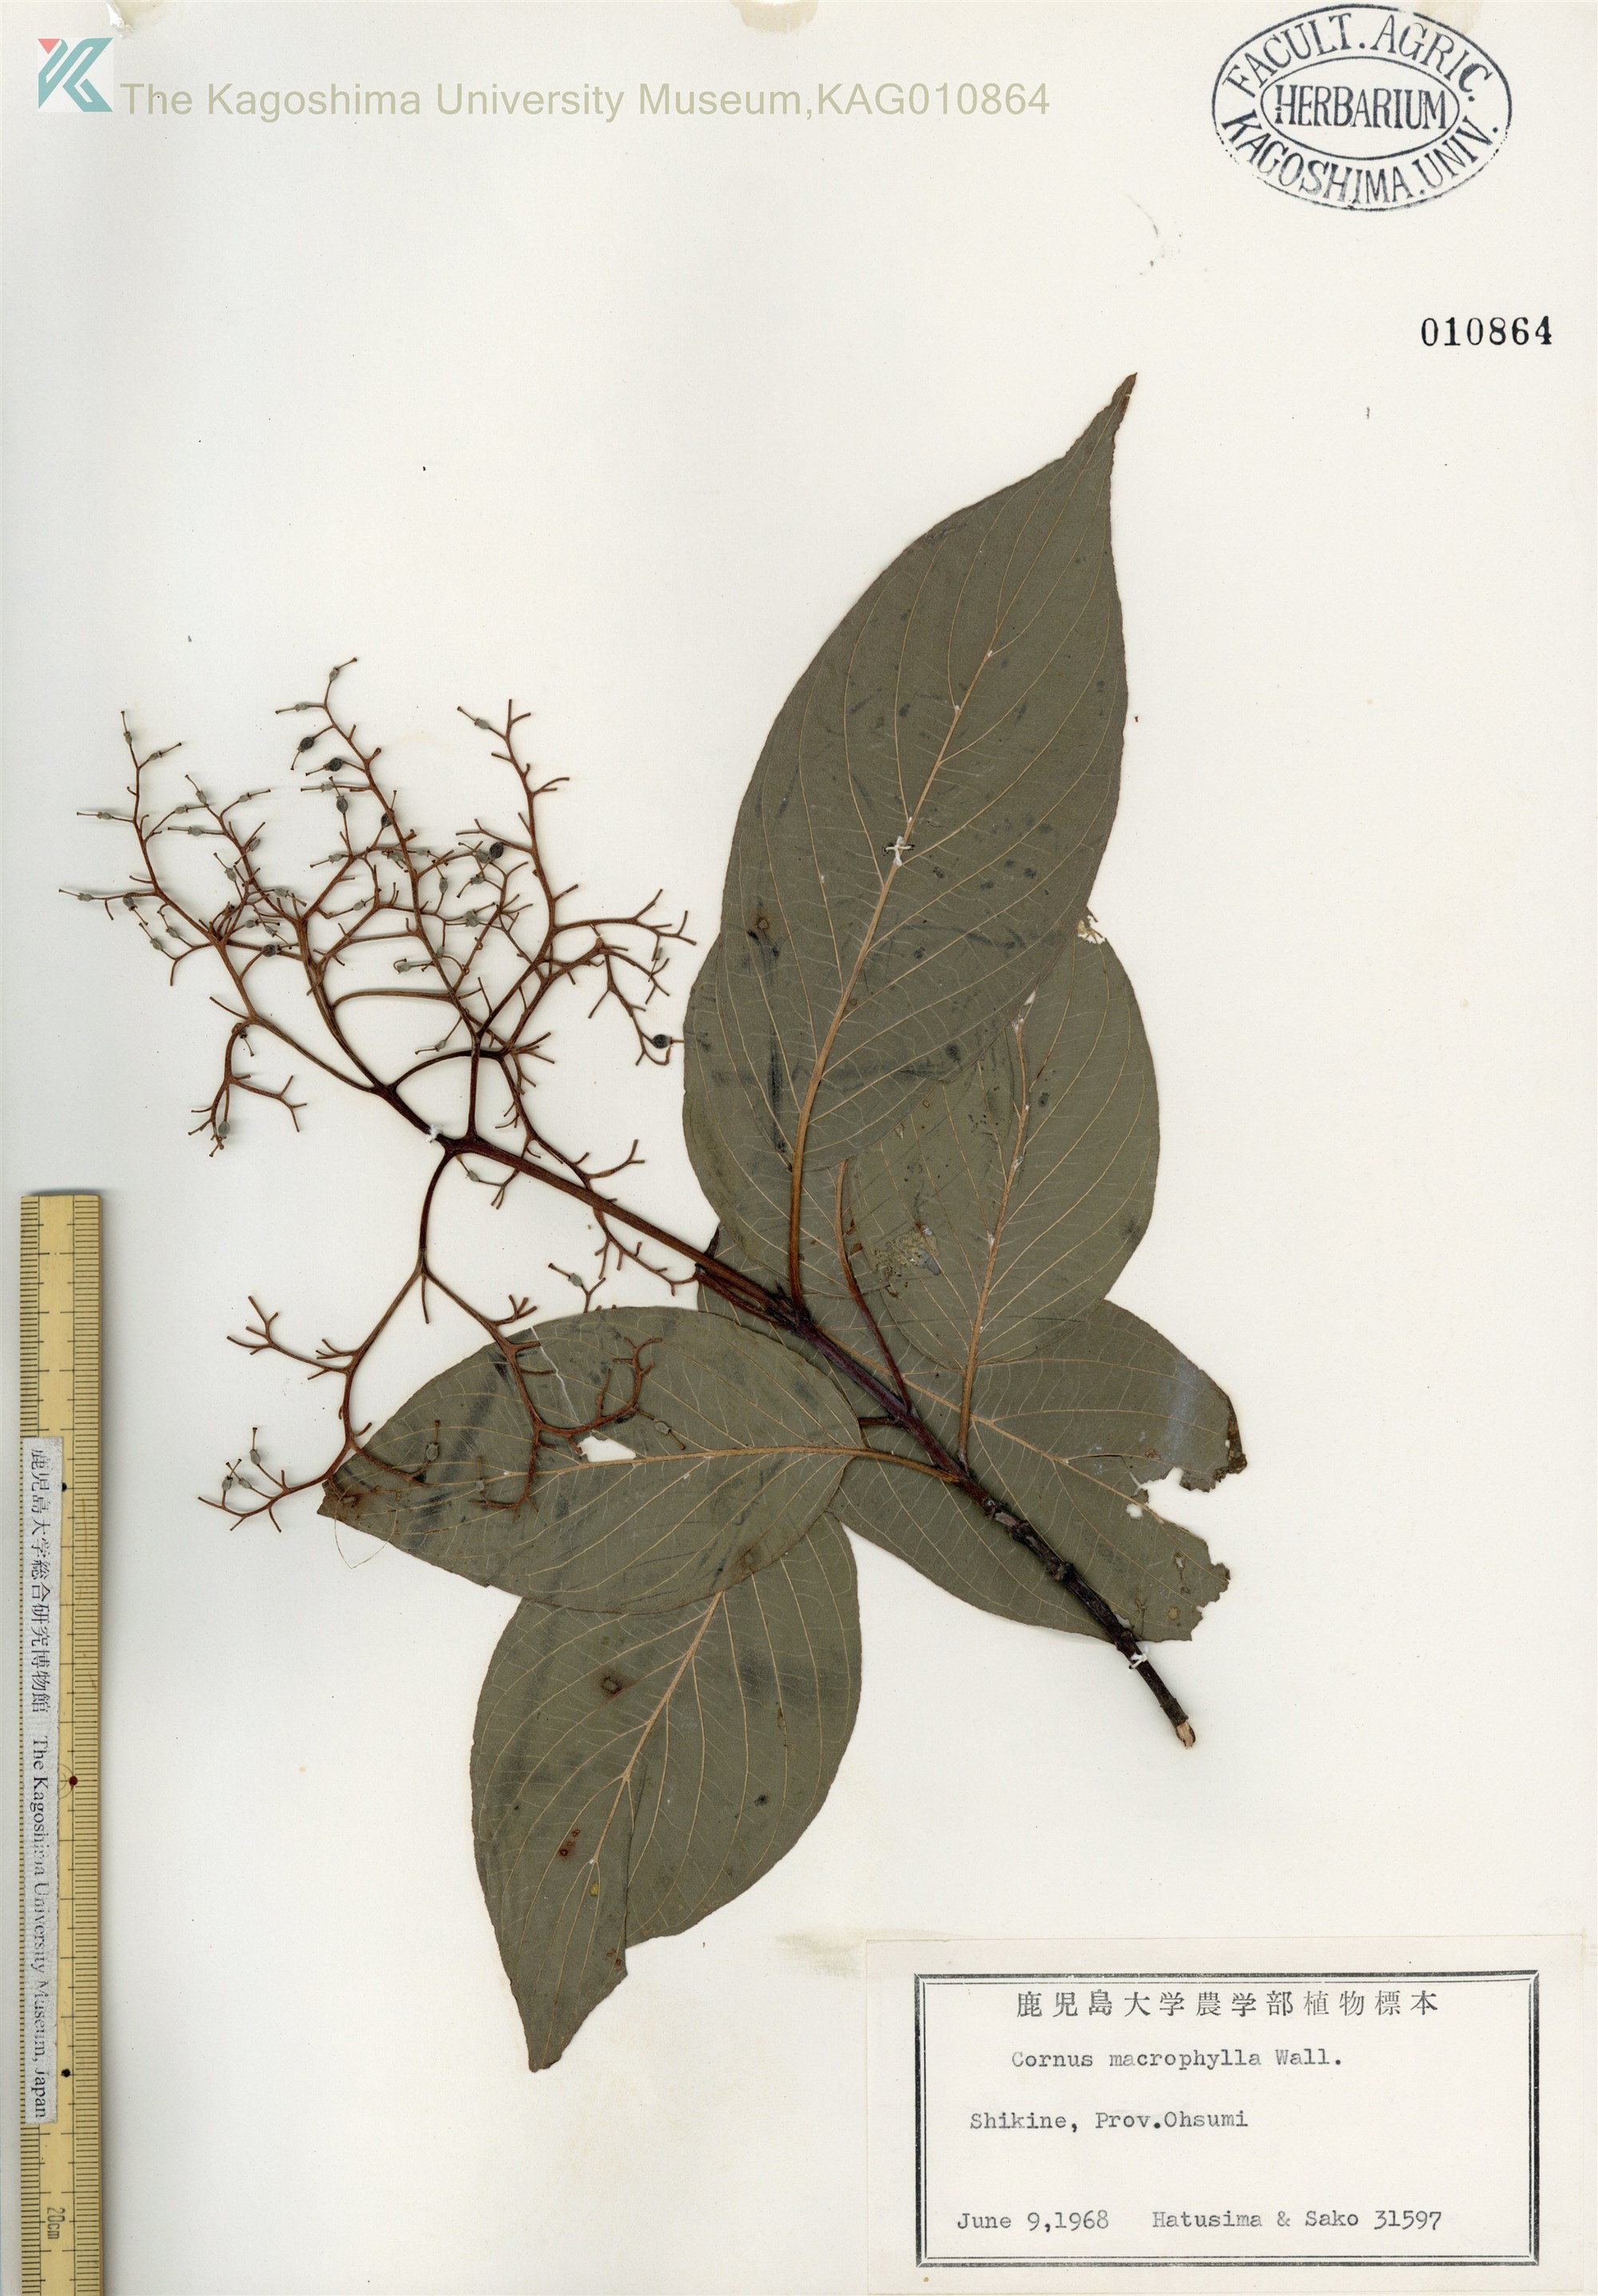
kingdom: Plantae
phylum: Tracheophyta
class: Magnoliopsida
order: Cornales
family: Cornaceae
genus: Cornus
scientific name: Cornus macrophylla
